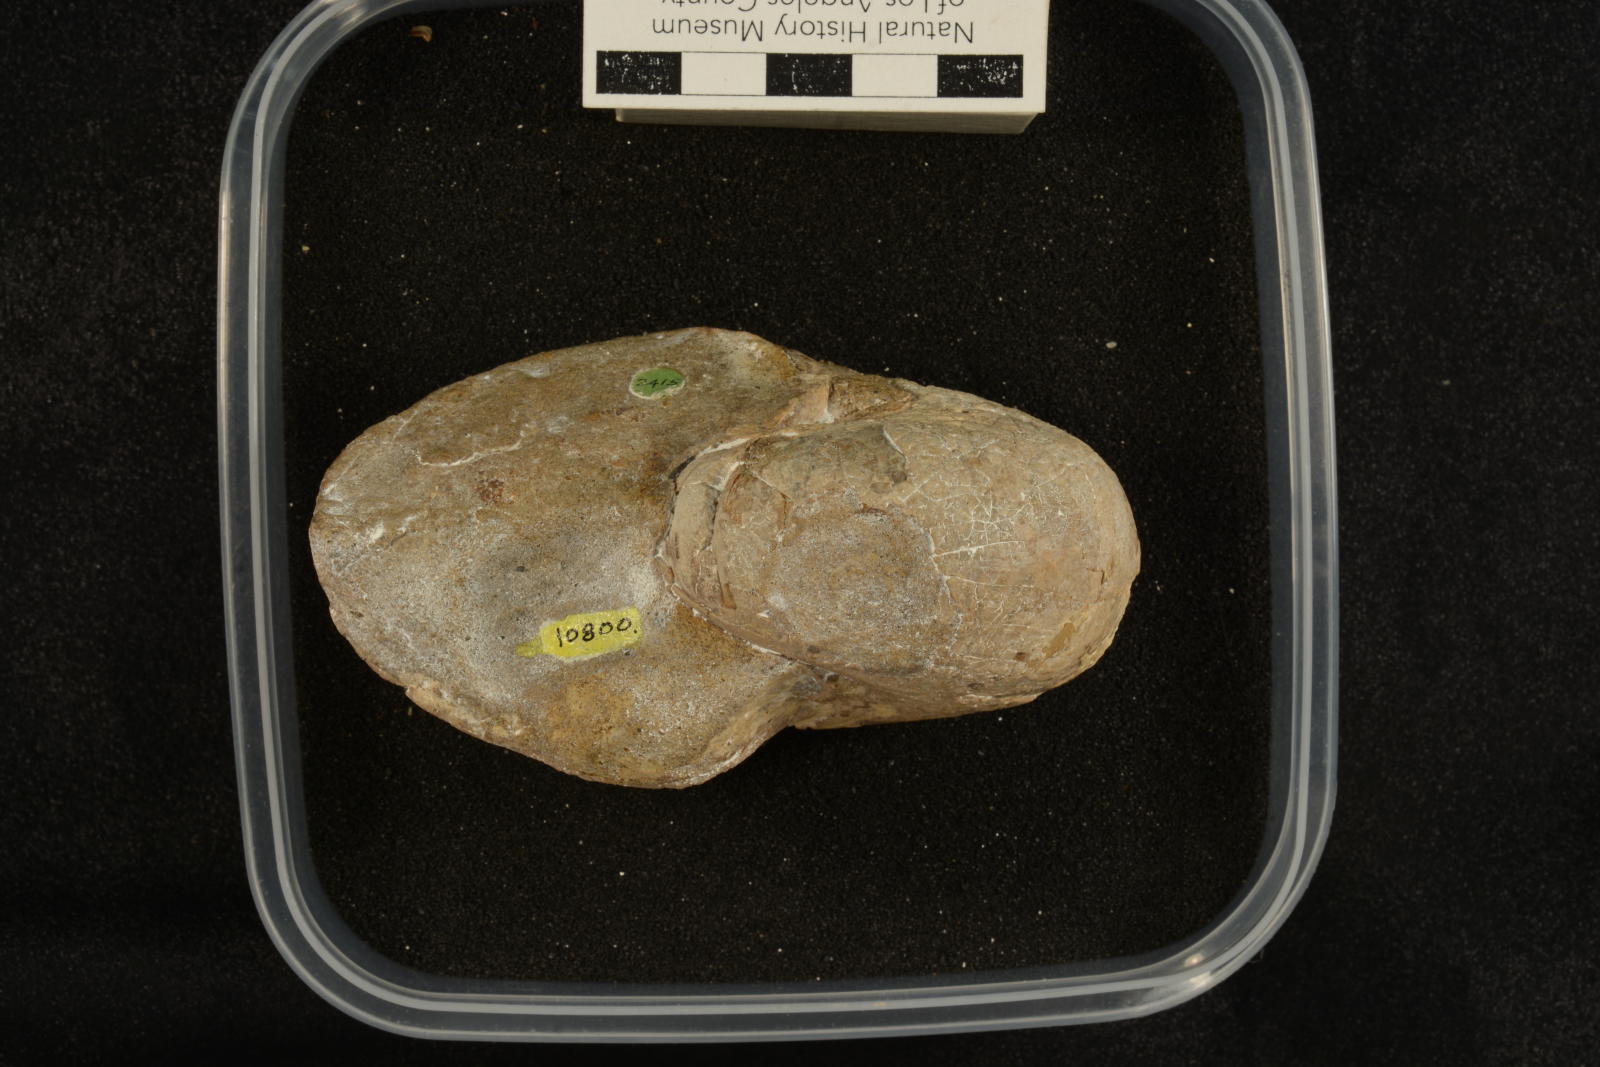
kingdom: Animalia
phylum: Mollusca
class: Cephalopoda
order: Nautilida
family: Cymatoceratidae
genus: Anglonautilus
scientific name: Anglonautilus catarinae
